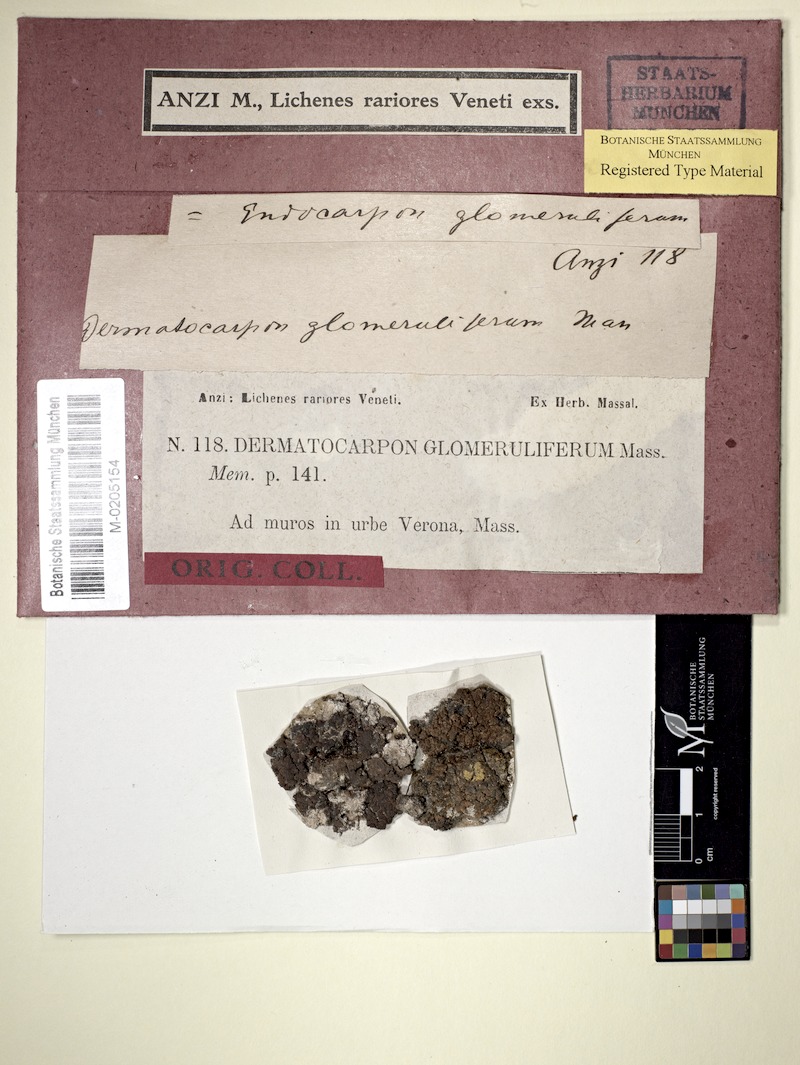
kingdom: Fungi
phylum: Ascomycota
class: Eurotiomycetes
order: Verrucariales
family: Verrucariaceae
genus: Endocarpon
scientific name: Endocarpon pusillum
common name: Scaly stippled lichen
